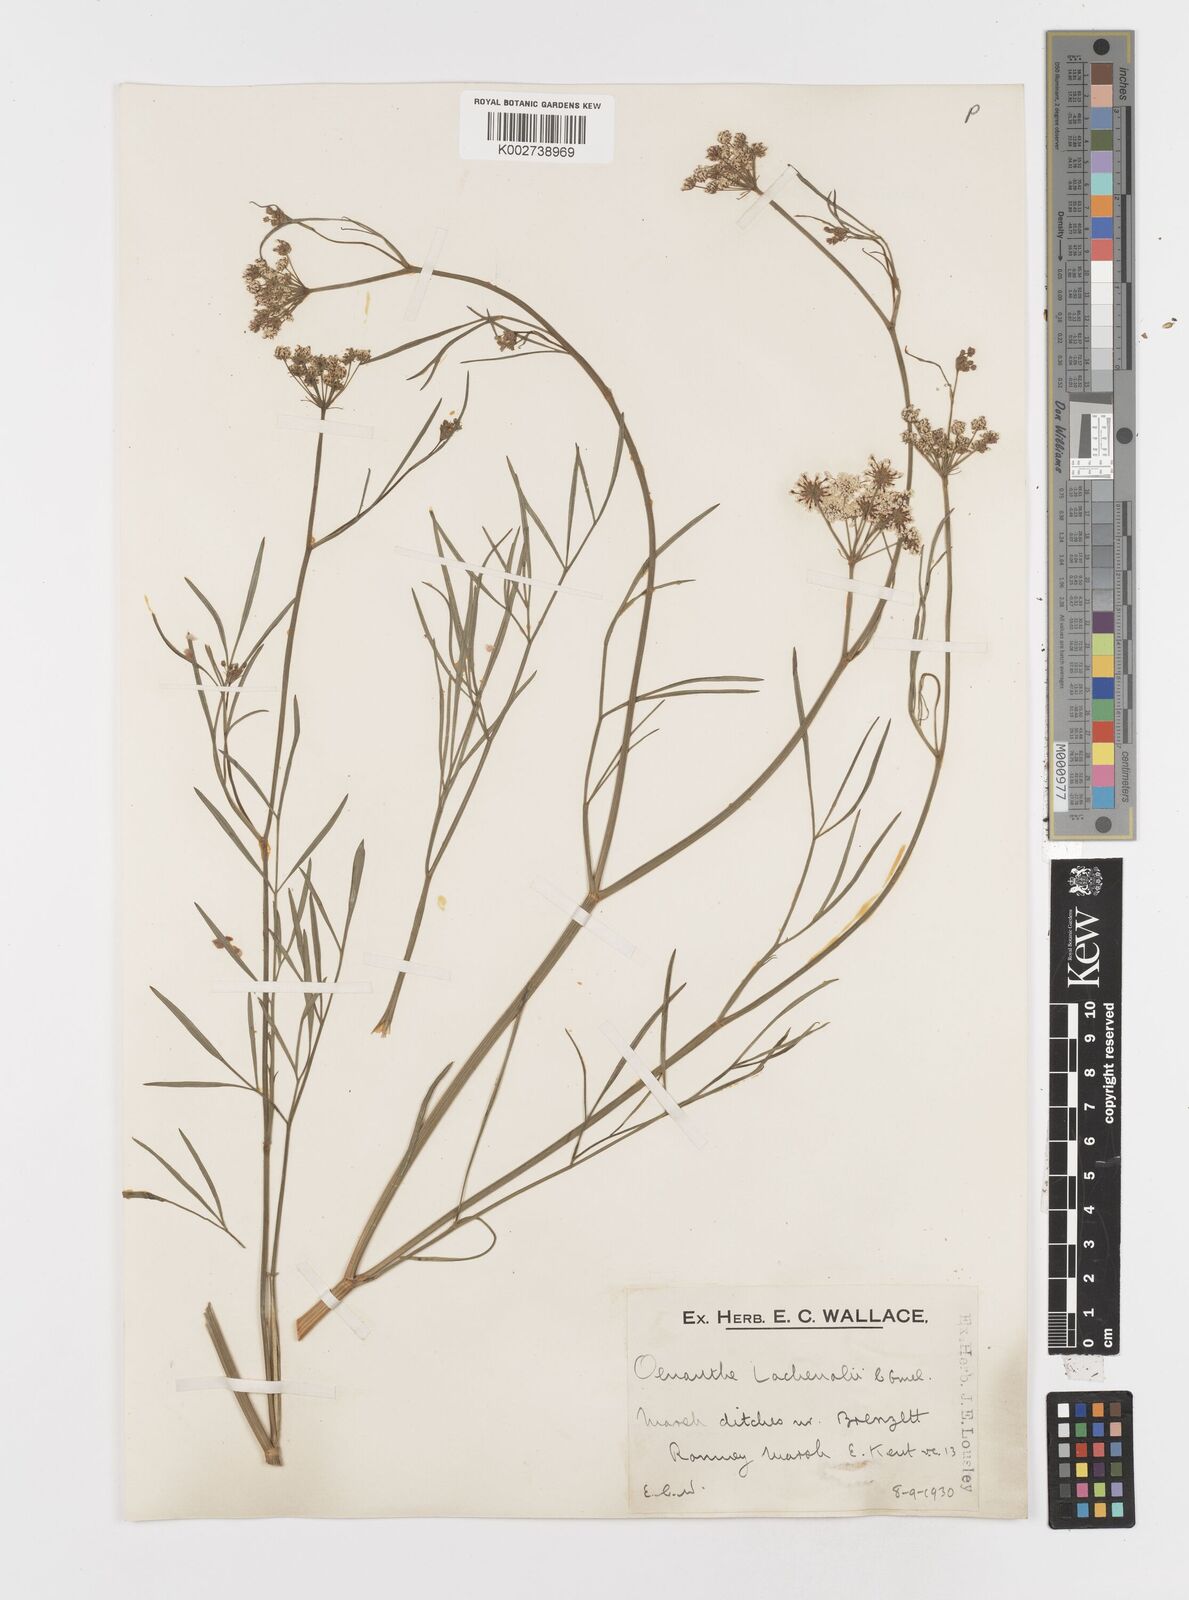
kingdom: Plantae
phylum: Tracheophyta
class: Magnoliopsida
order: Apiales
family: Apiaceae
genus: Oenanthe
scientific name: Oenanthe lachenalii
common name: Parsley water-dropwort
